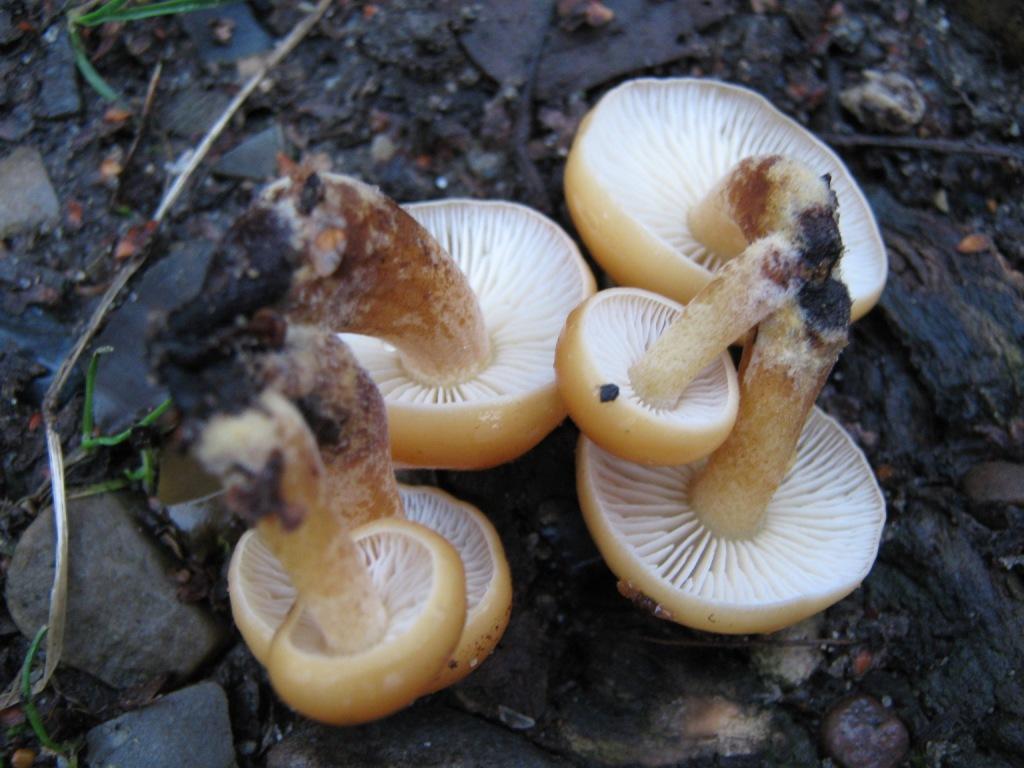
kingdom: Fungi
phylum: Basidiomycota
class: Agaricomycetes
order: Agaricales
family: Physalacriaceae
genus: Flammulina
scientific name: Flammulina velutipes
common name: gul fløjlsfod
